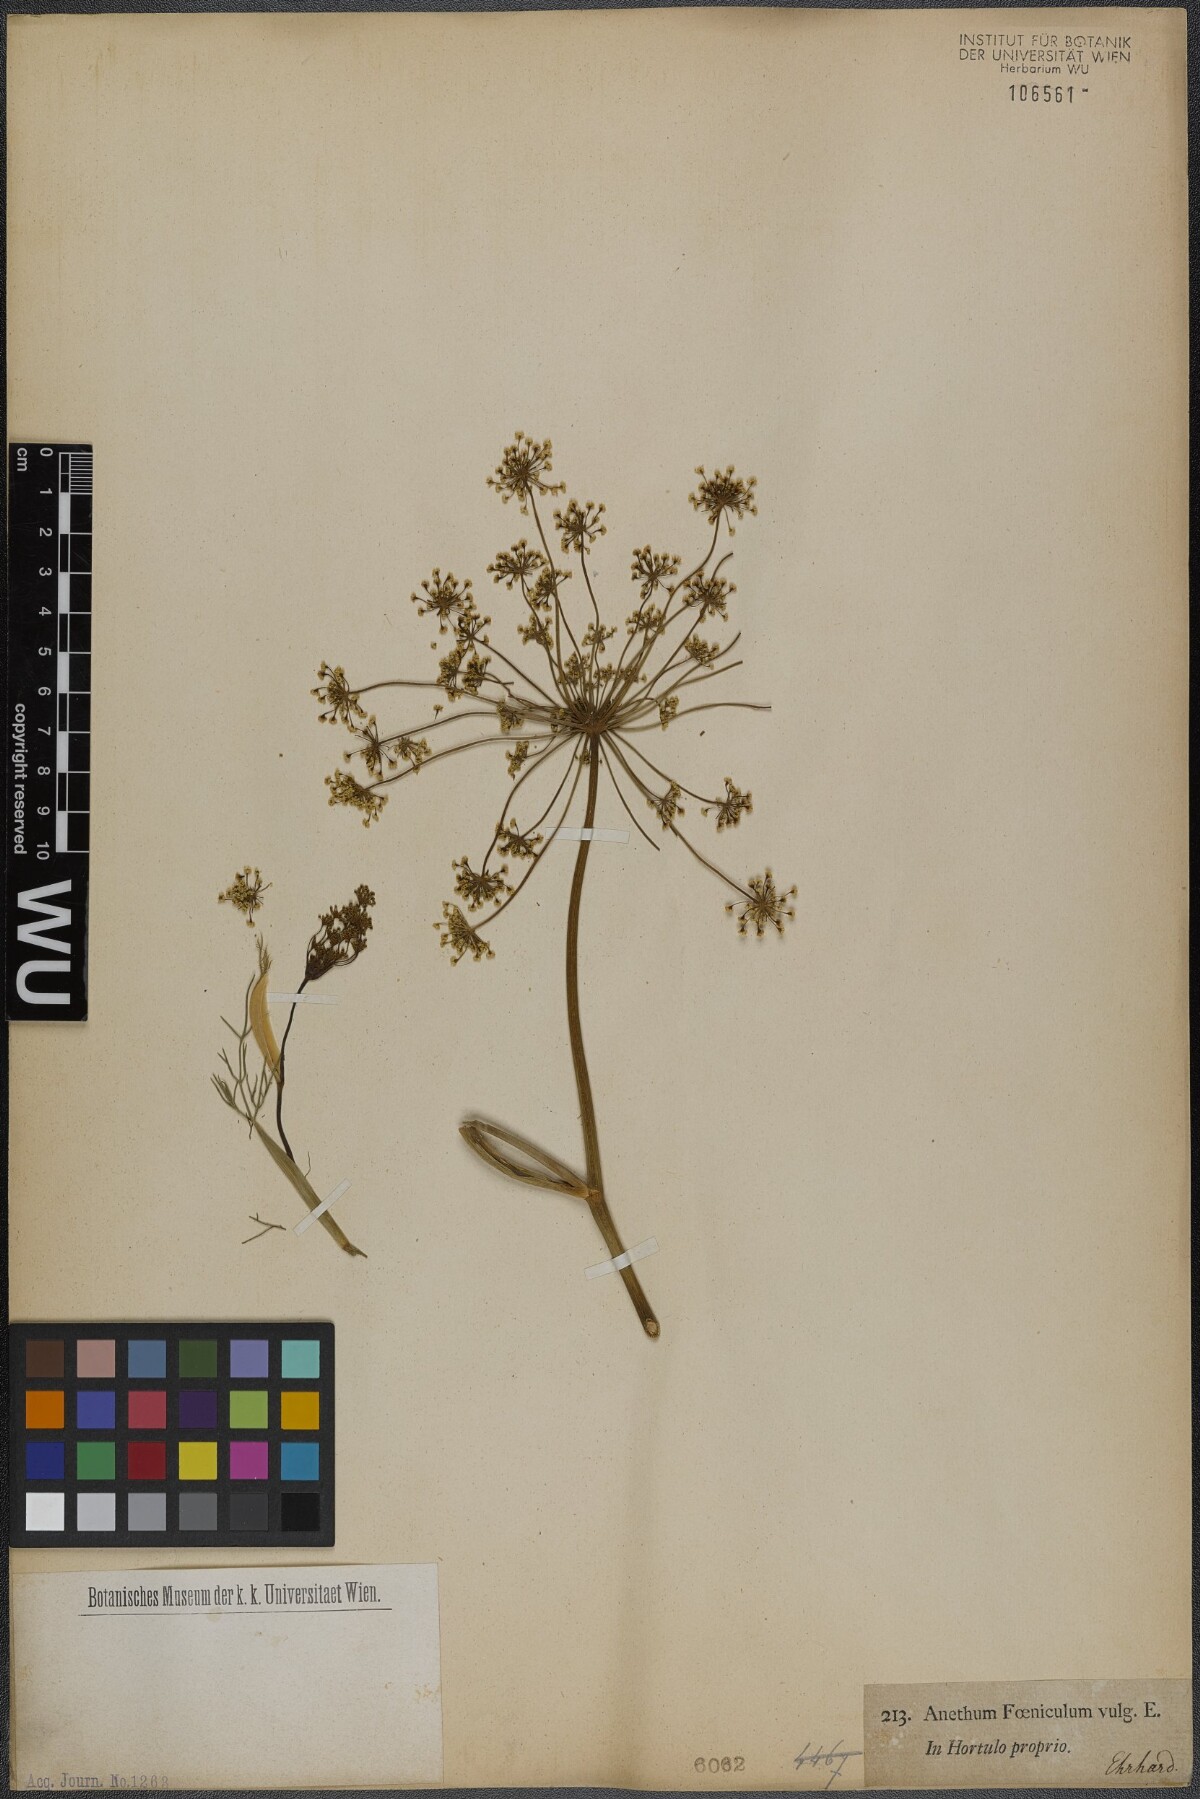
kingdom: Plantae
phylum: Tracheophyta
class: Magnoliopsida
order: Apiales
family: Apiaceae
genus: Foeniculum
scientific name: Foeniculum vulgare
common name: Fennel
